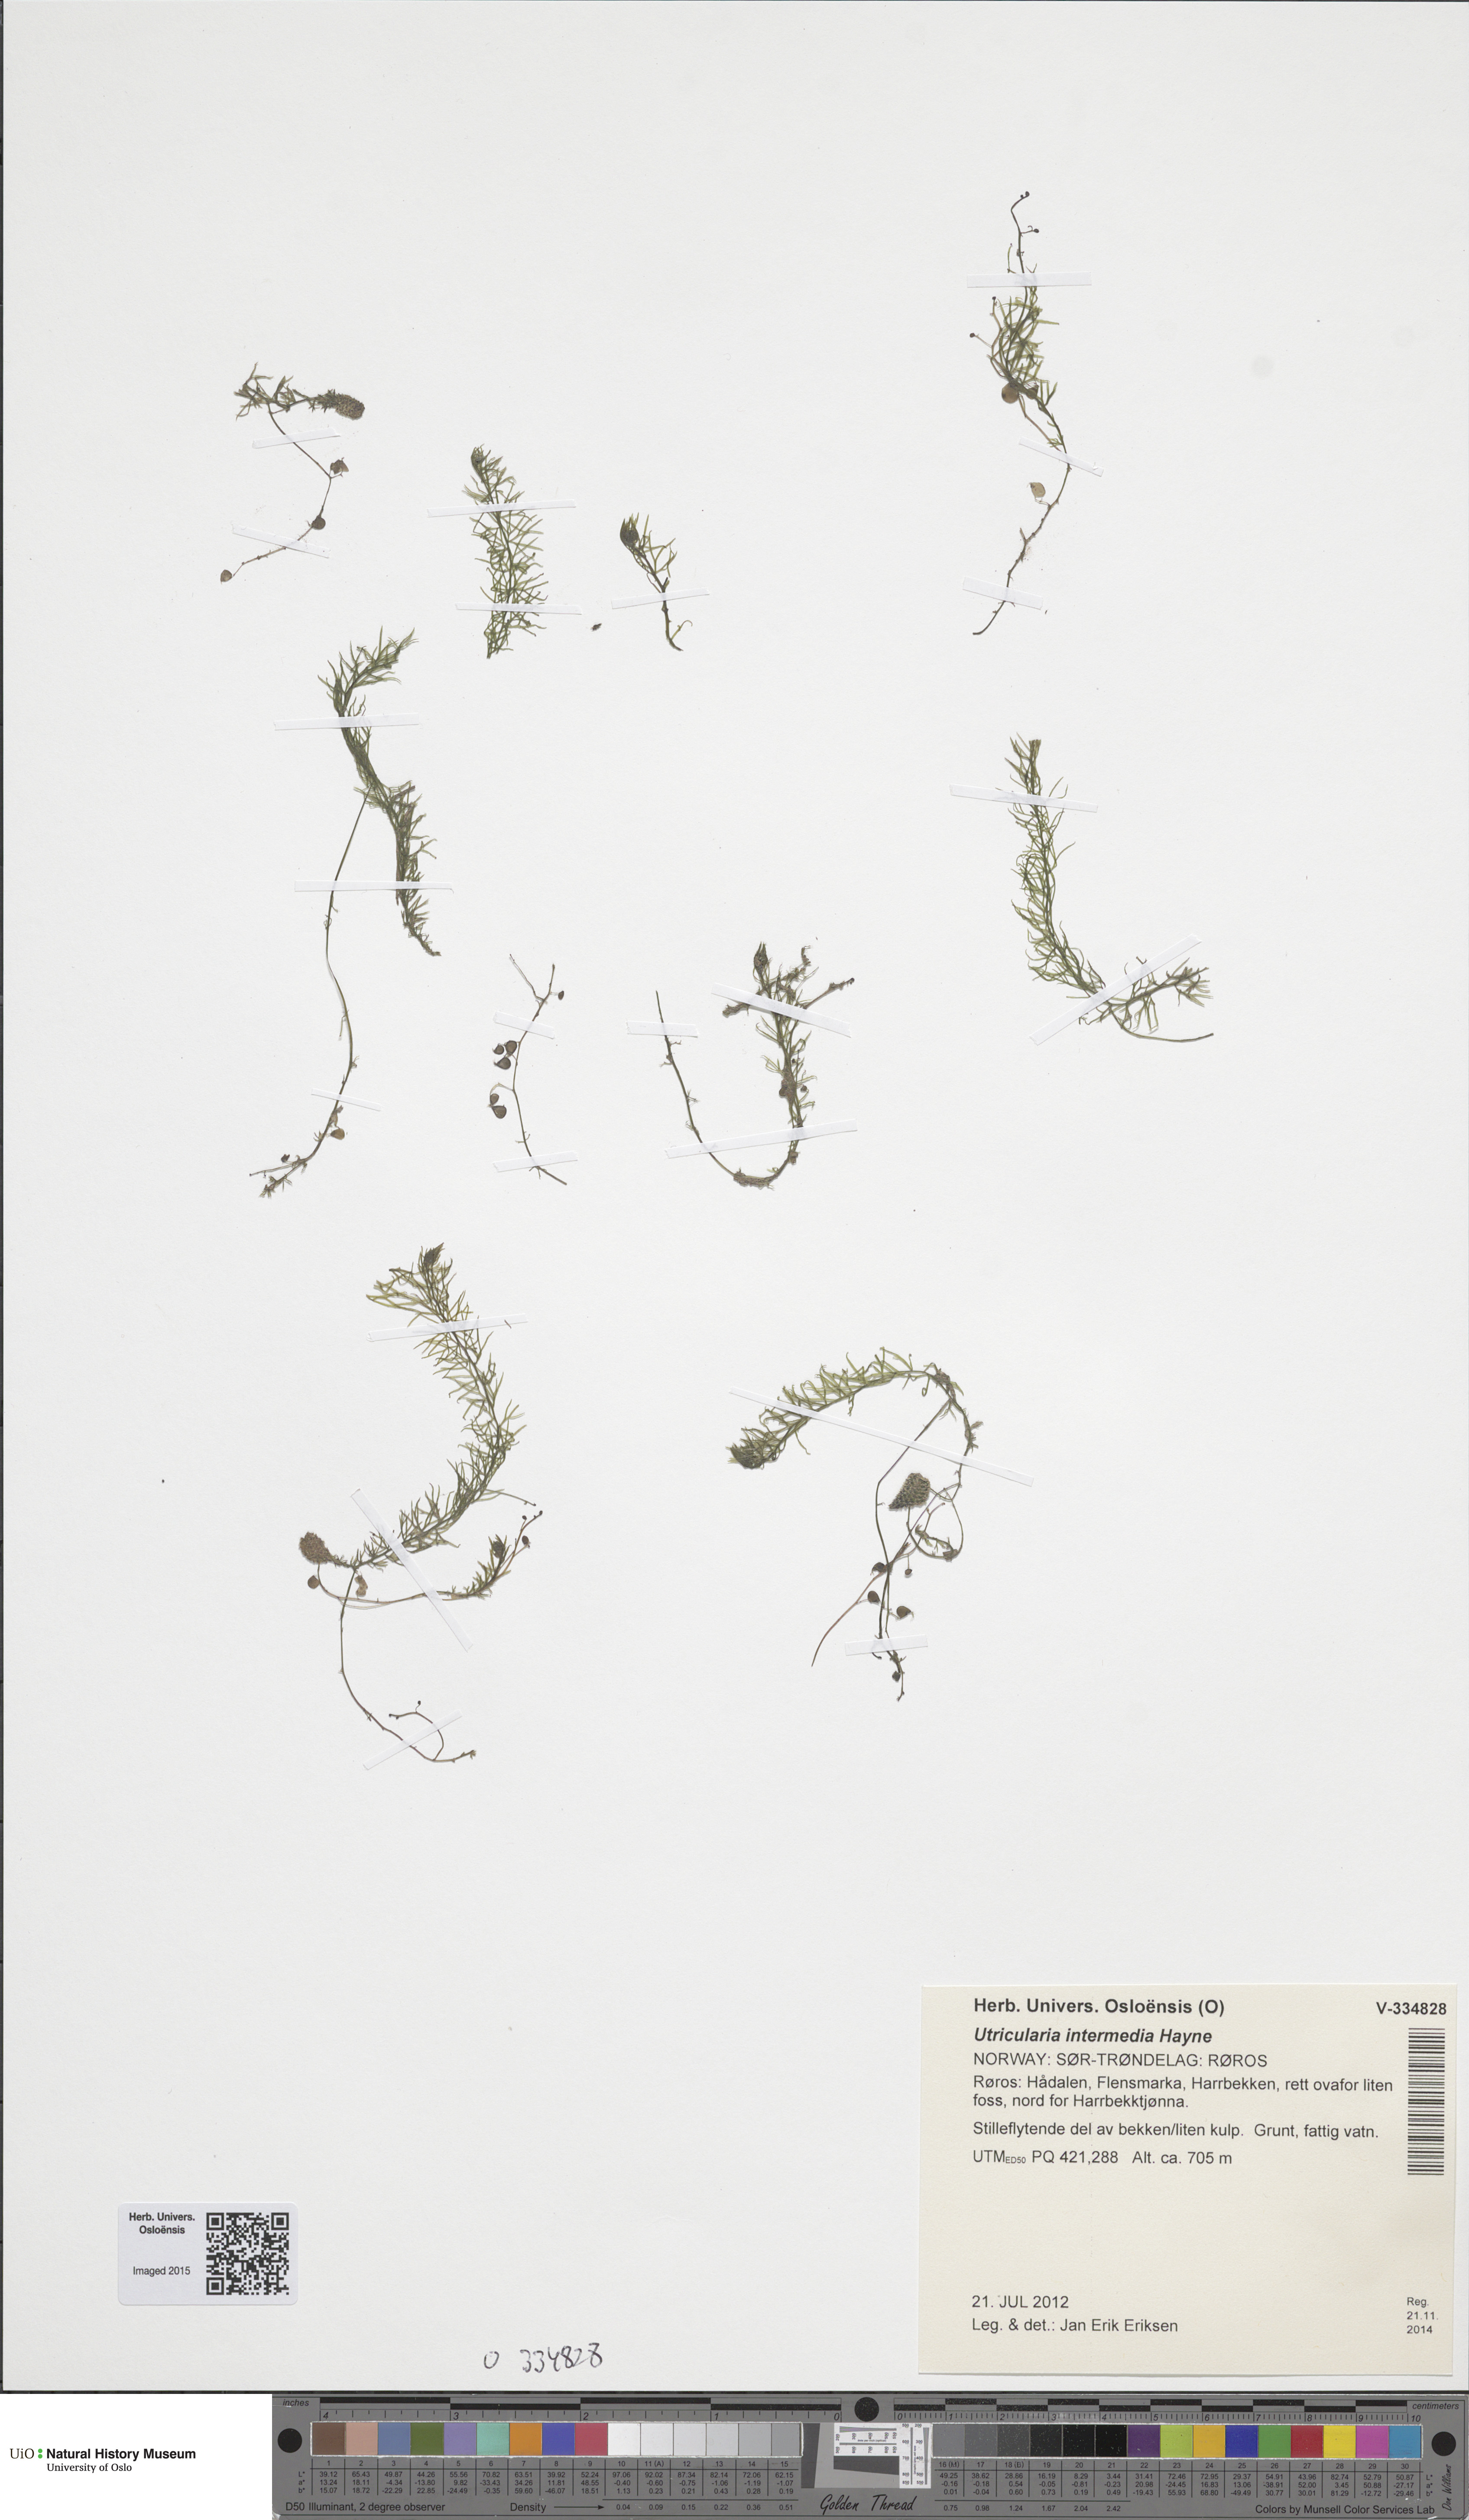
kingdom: Plantae
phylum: Tracheophyta
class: Magnoliopsida
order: Lamiales
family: Lentibulariaceae
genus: Utricularia
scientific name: Utricularia intermedia
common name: Intermediate bladderwort
